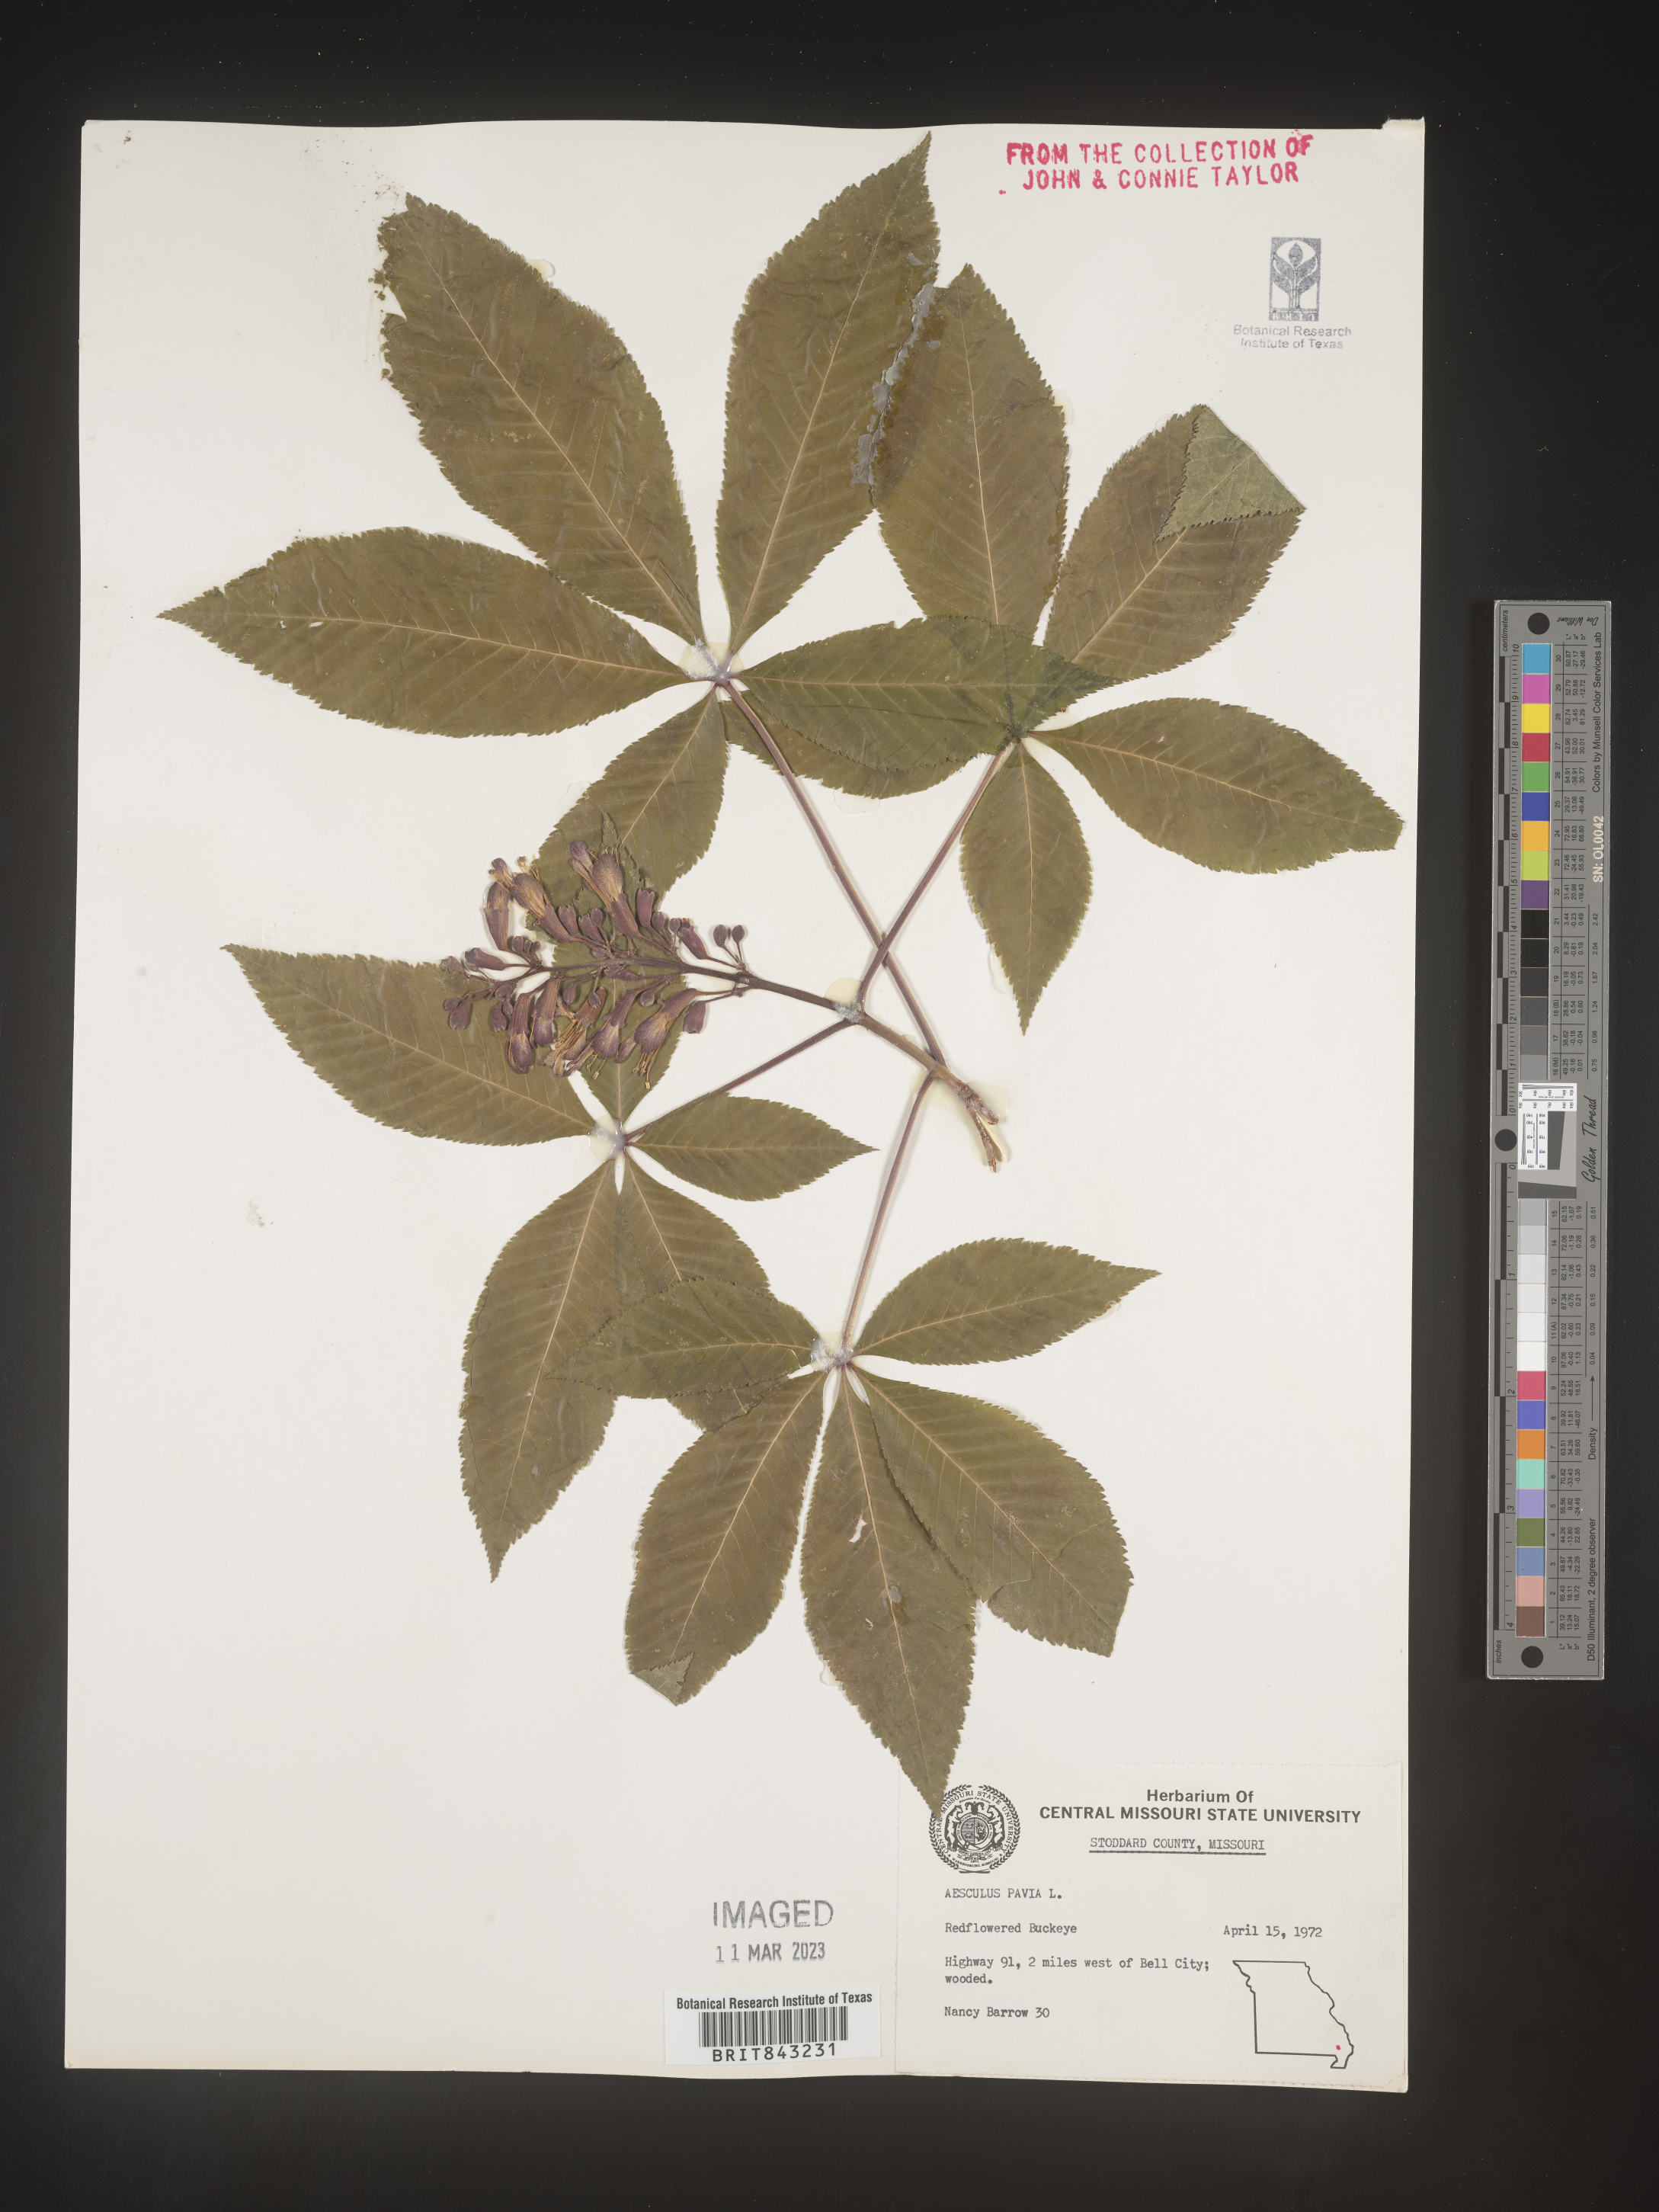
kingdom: Plantae
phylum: Tracheophyta
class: Magnoliopsida
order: Sapindales
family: Sapindaceae
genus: Aesculus
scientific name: Aesculus pavia
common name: Red buckeye
